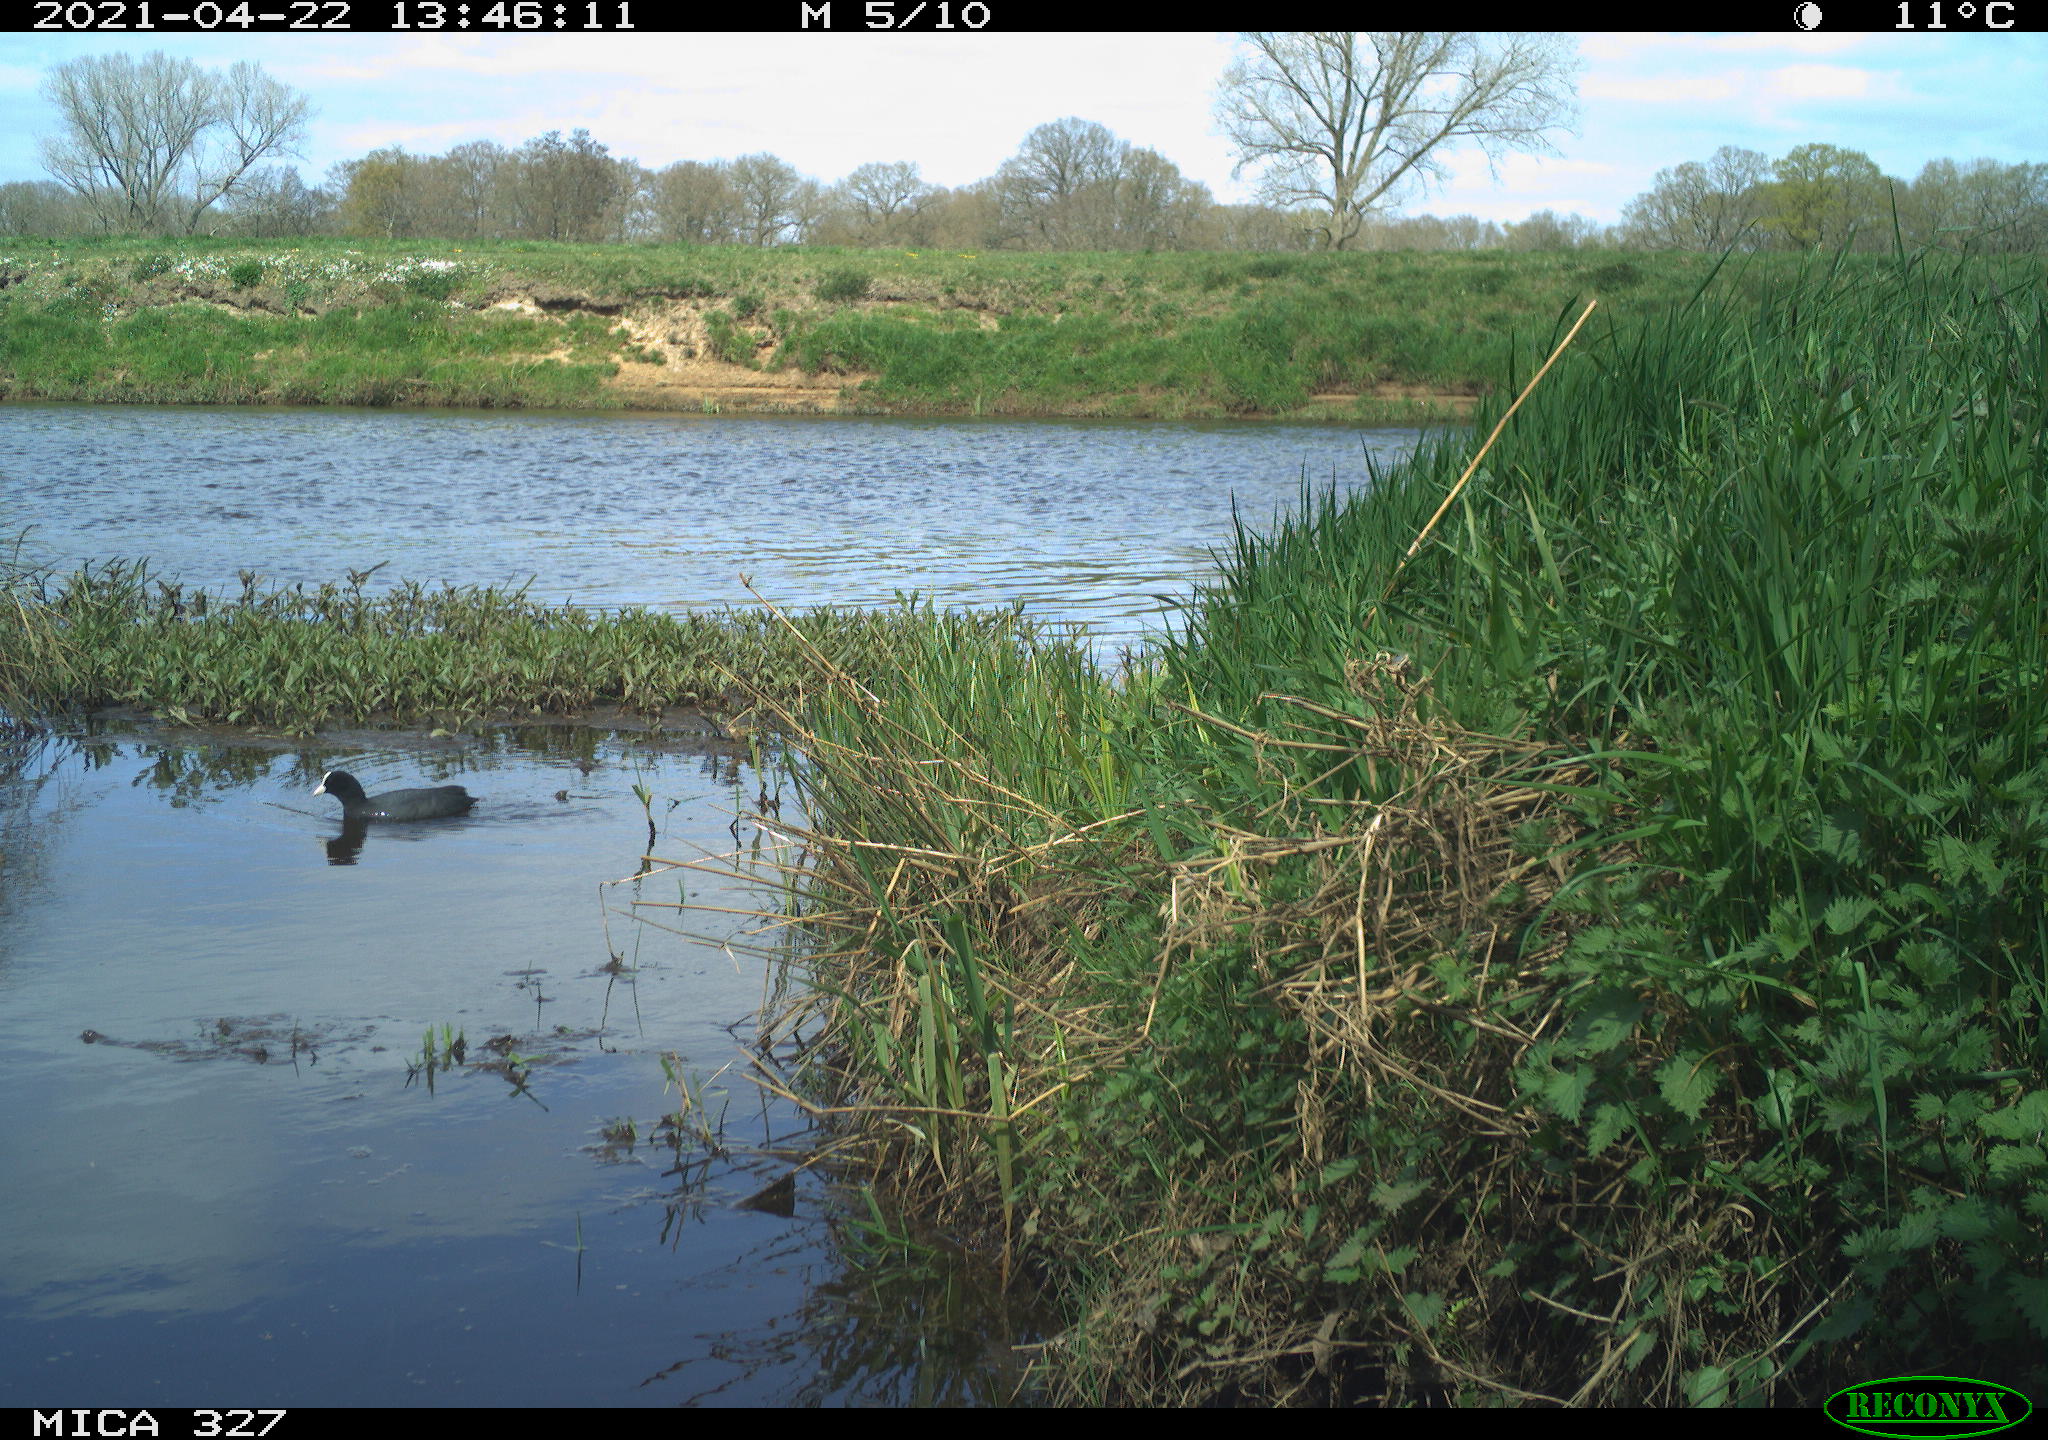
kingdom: Animalia
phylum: Chordata
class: Aves
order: Gruiformes
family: Rallidae
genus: Fulica
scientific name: Fulica atra
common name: Eurasian coot
